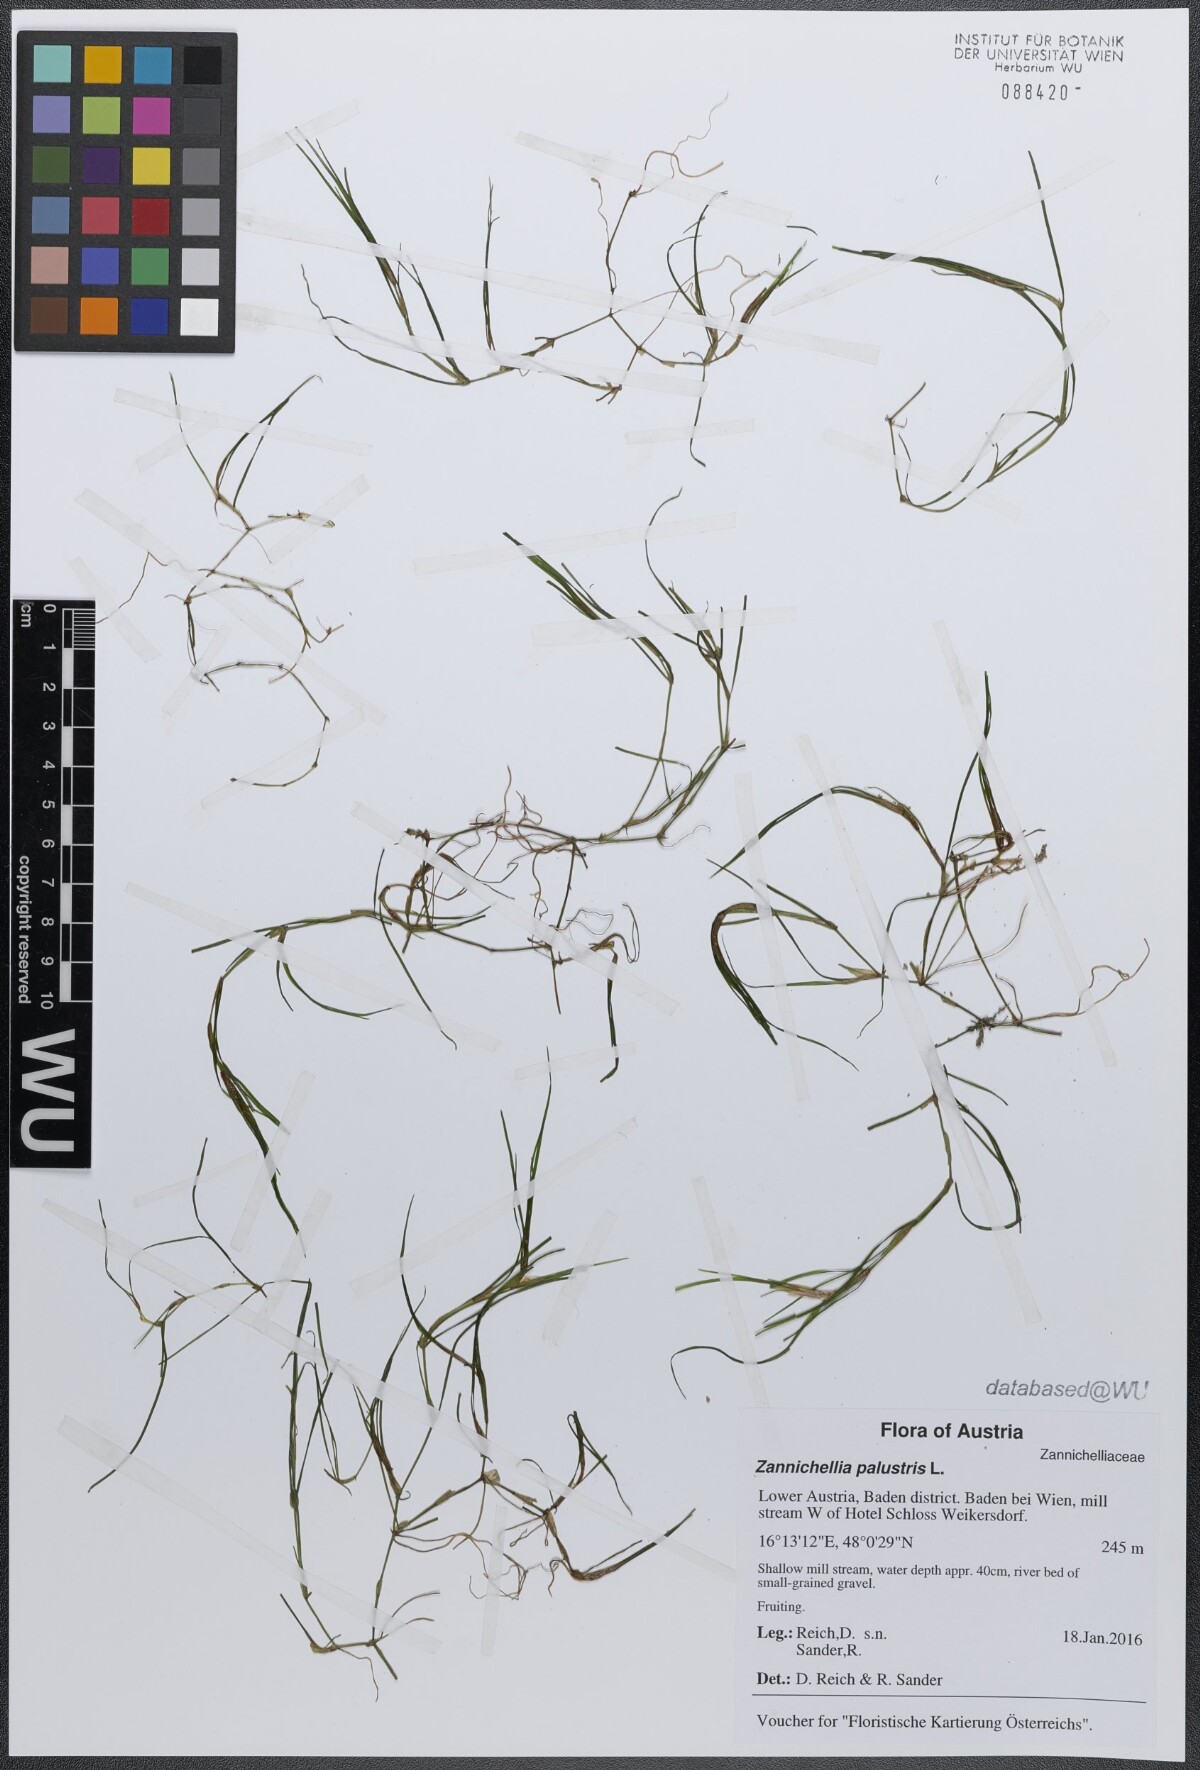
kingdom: Plantae
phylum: Tracheophyta
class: Liliopsida
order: Alismatales
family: Potamogetonaceae
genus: Zannichellia
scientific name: Zannichellia palustris
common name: Horned pondweed
